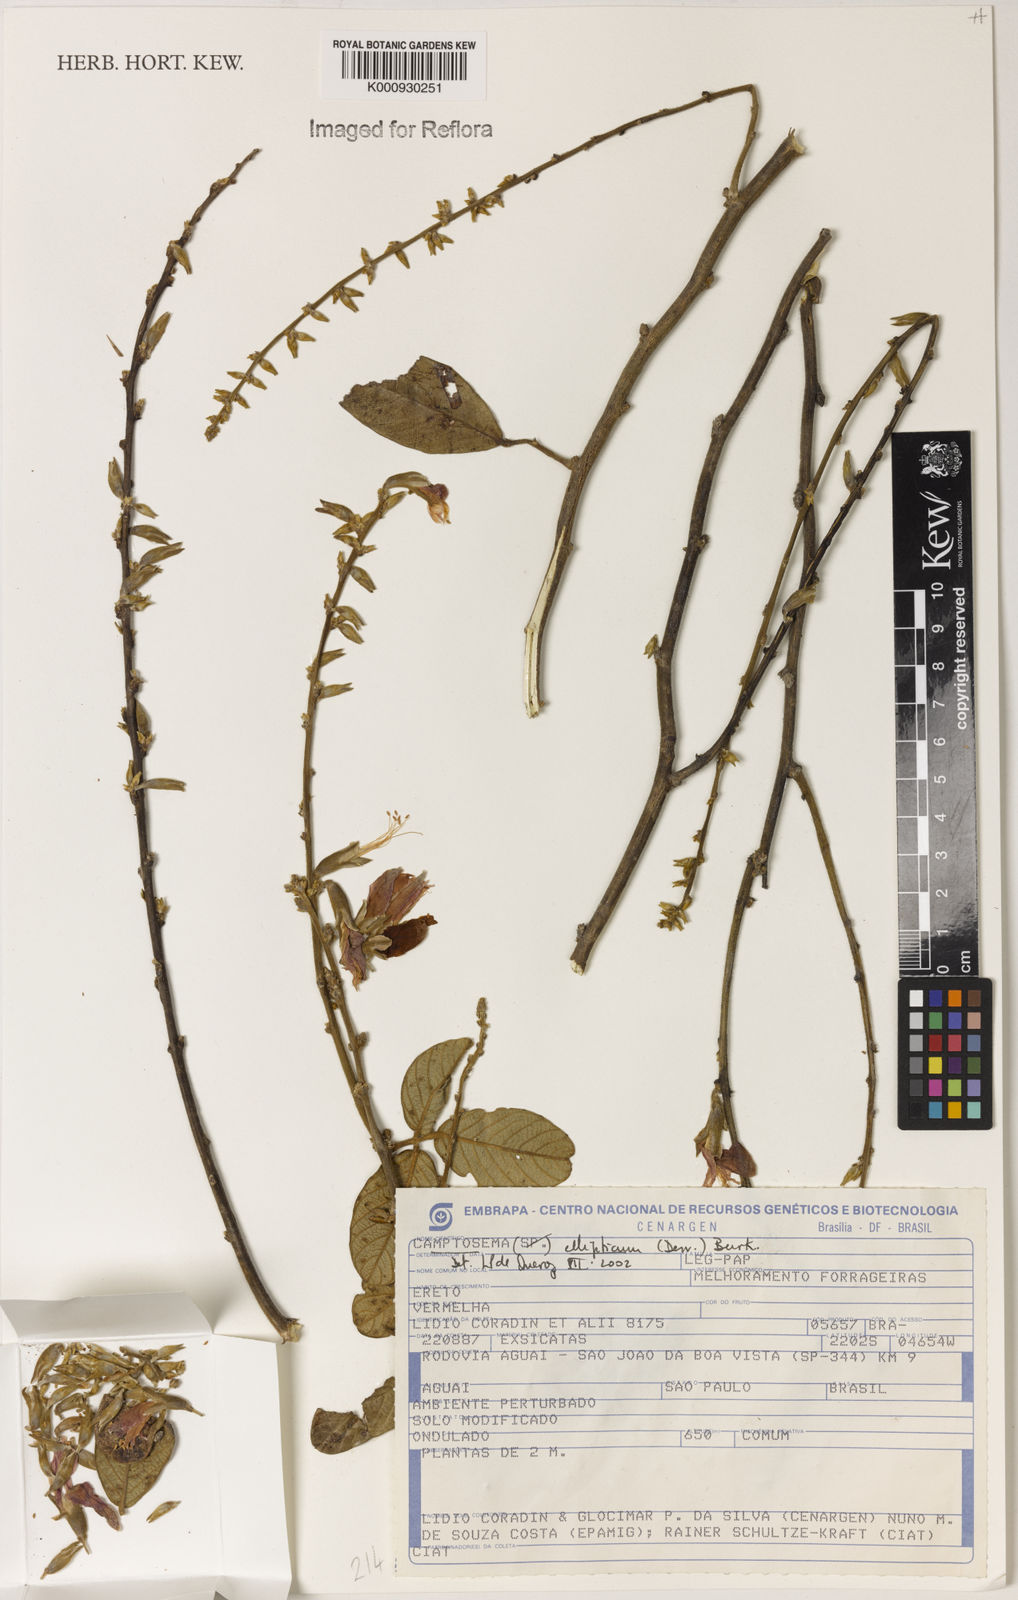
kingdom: Plantae
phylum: Tracheophyta
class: Magnoliopsida
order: Fabales
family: Fabaceae
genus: Camptosema
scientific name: Camptosema
